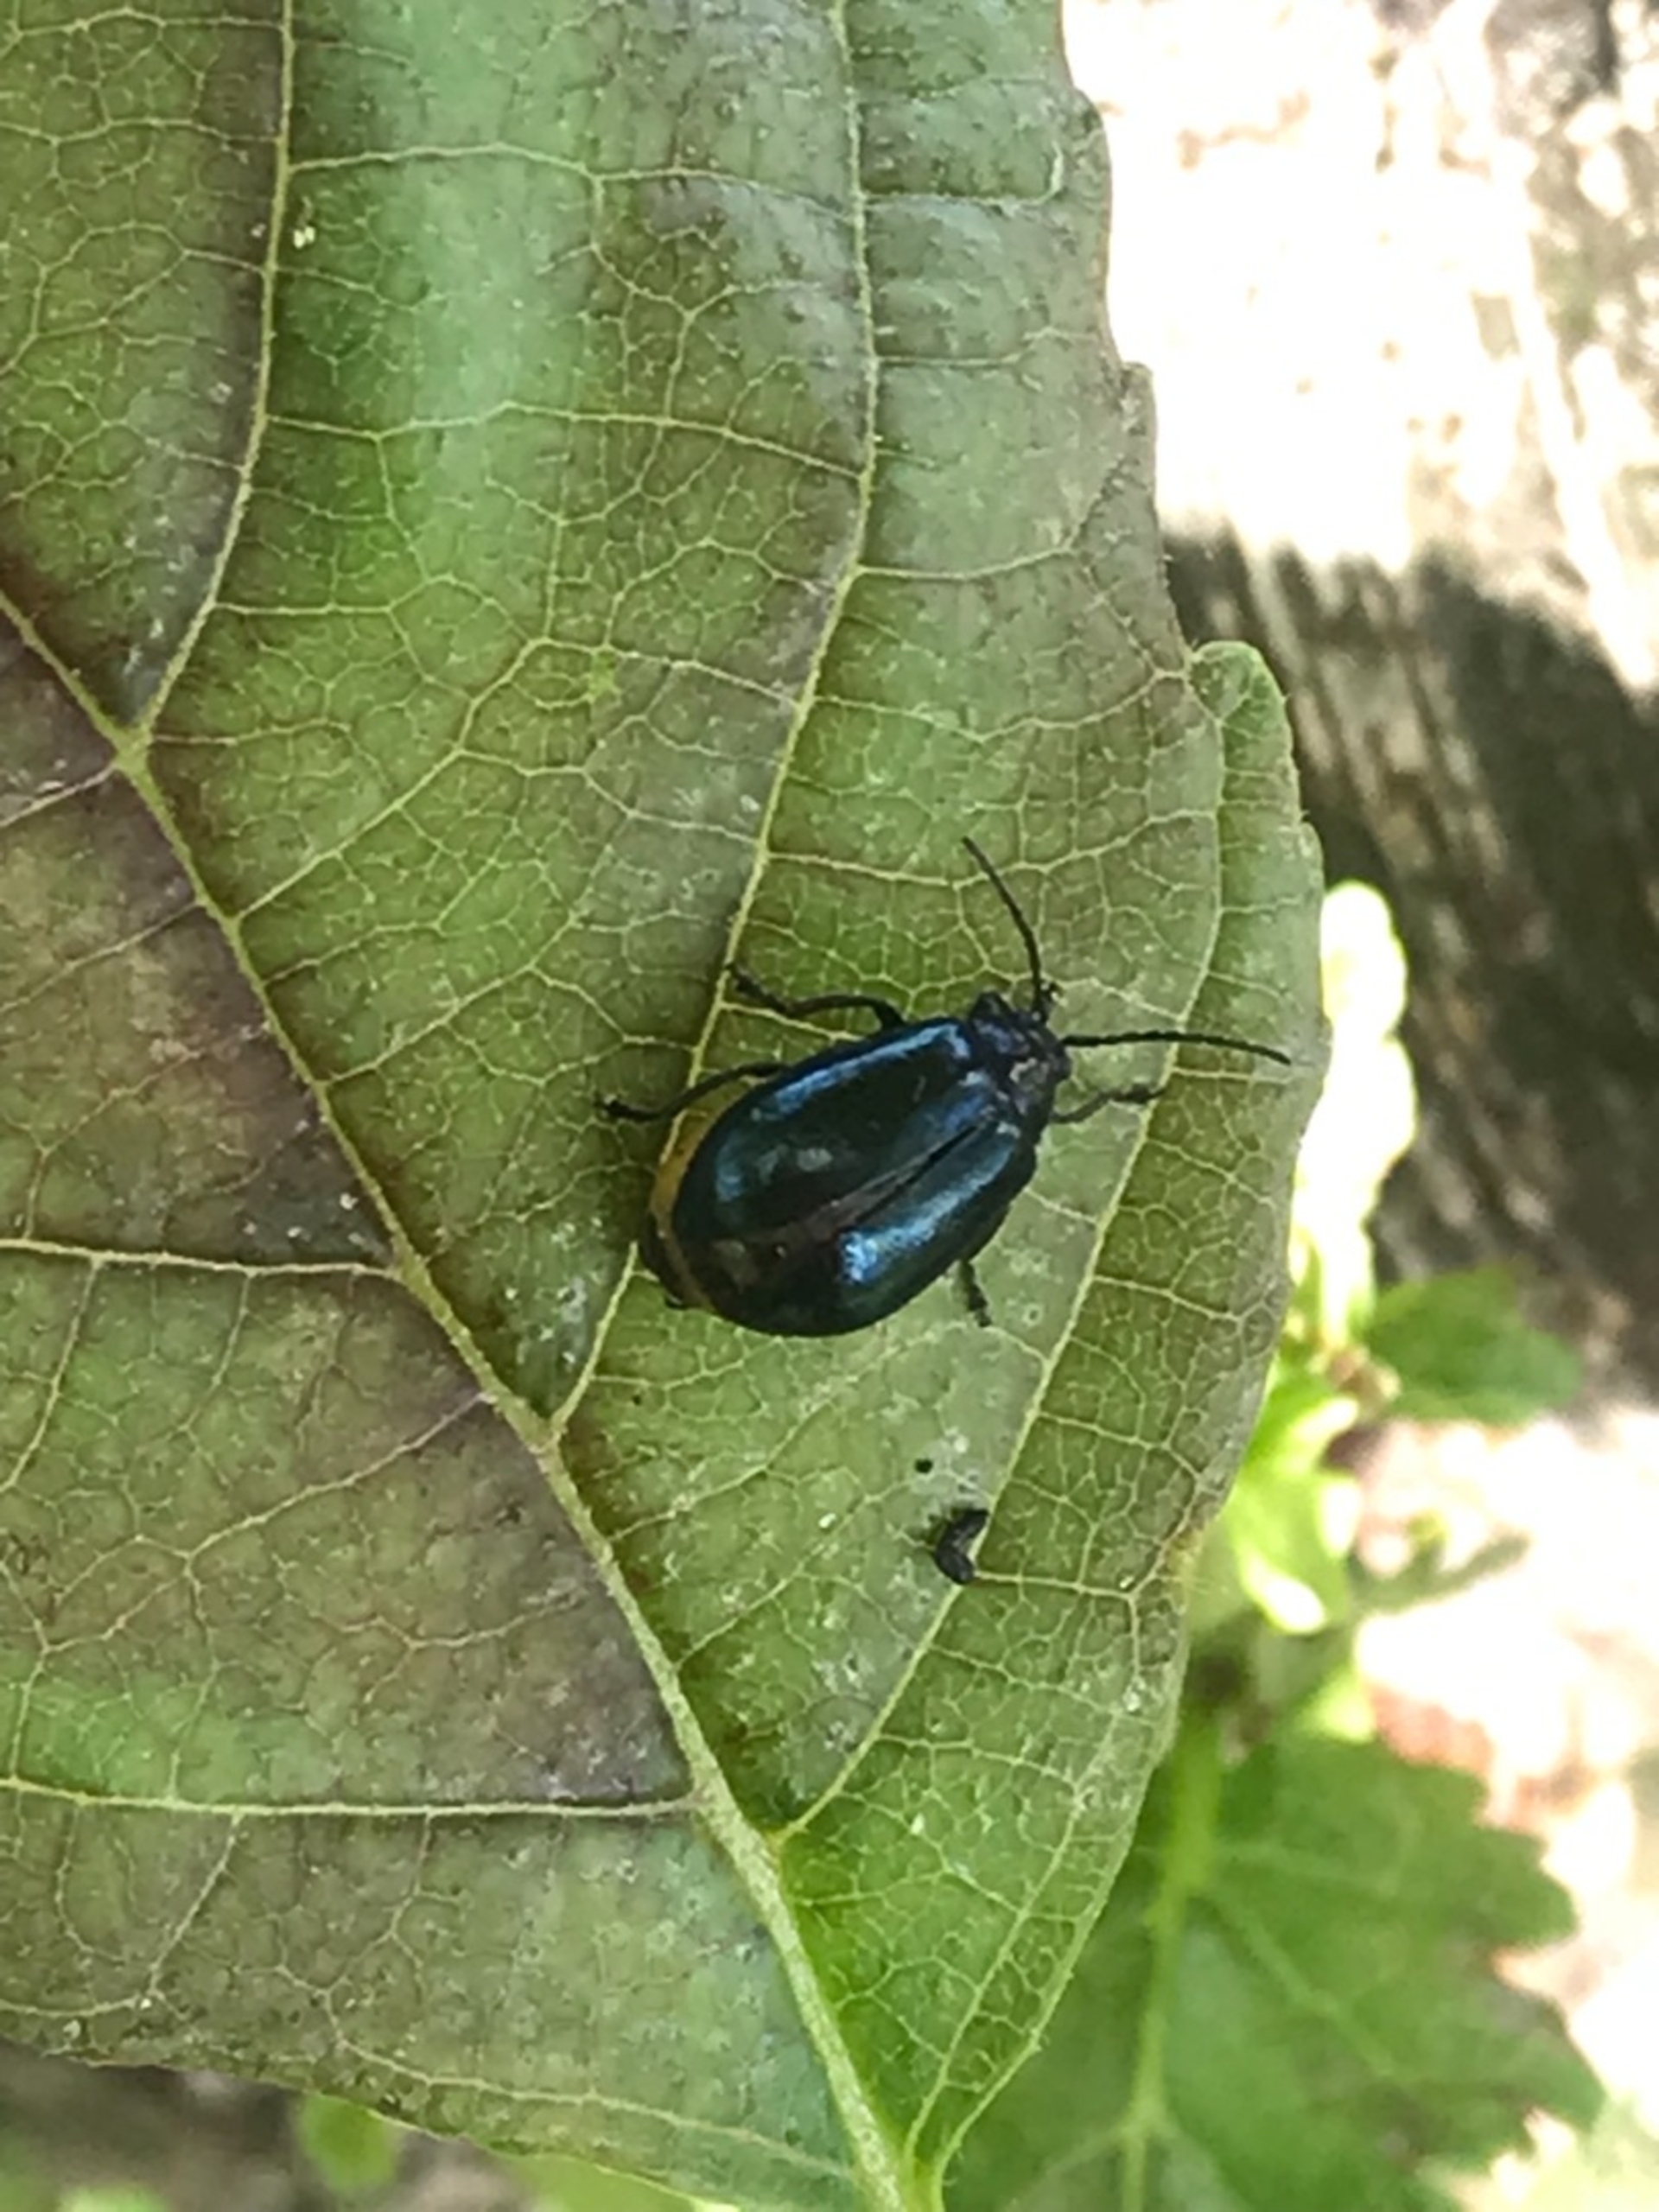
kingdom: Animalia
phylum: Arthropoda
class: Insecta
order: Coleoptera
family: Chrysomelidae
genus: Agelastica
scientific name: Agelastica alni
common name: Ellebladbille
